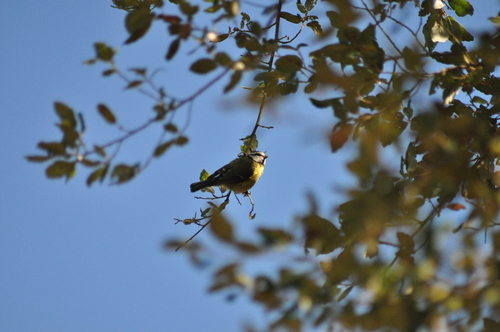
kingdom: Animalia
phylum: Chordata
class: Aves
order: Passeriformes
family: Paridae
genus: Cyanistes
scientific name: Cyanistes caeruleus
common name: Eurasian blue tit
